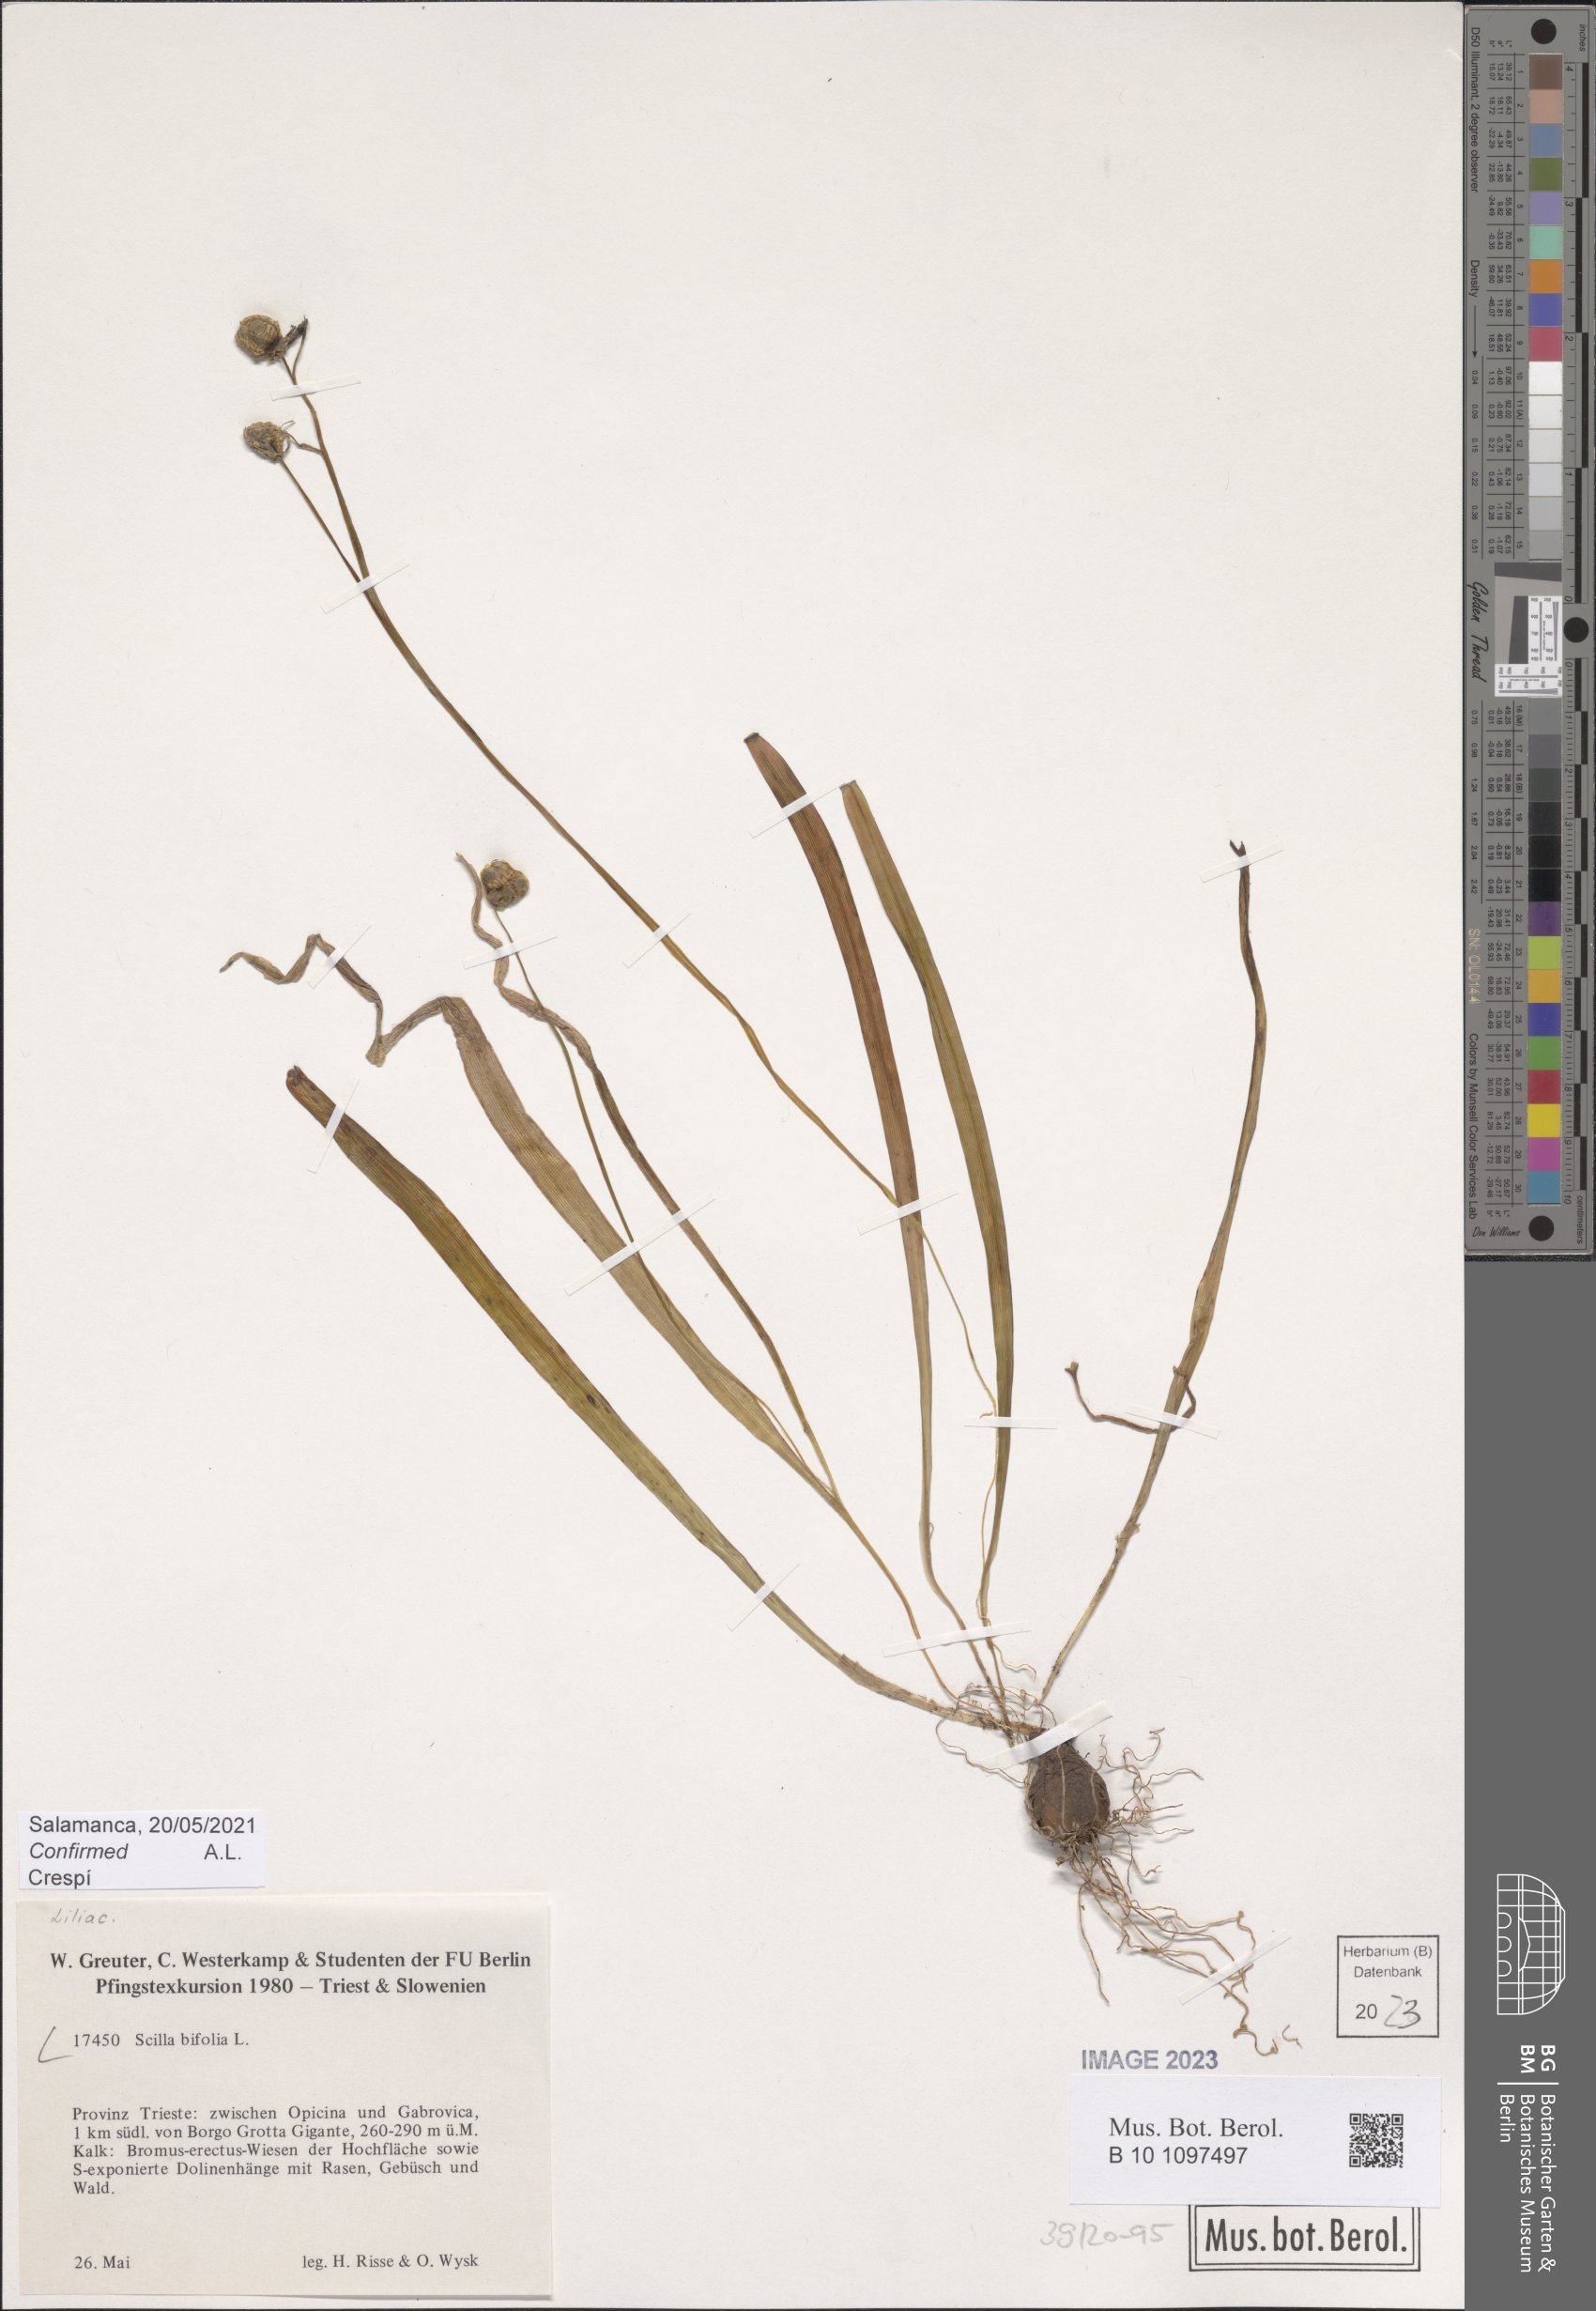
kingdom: Plantae
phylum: Tracheophyta
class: Liliopsida
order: Asparagales
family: Asparagaceae
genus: Scilla
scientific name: Scilla bifolia
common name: Alpine squill
